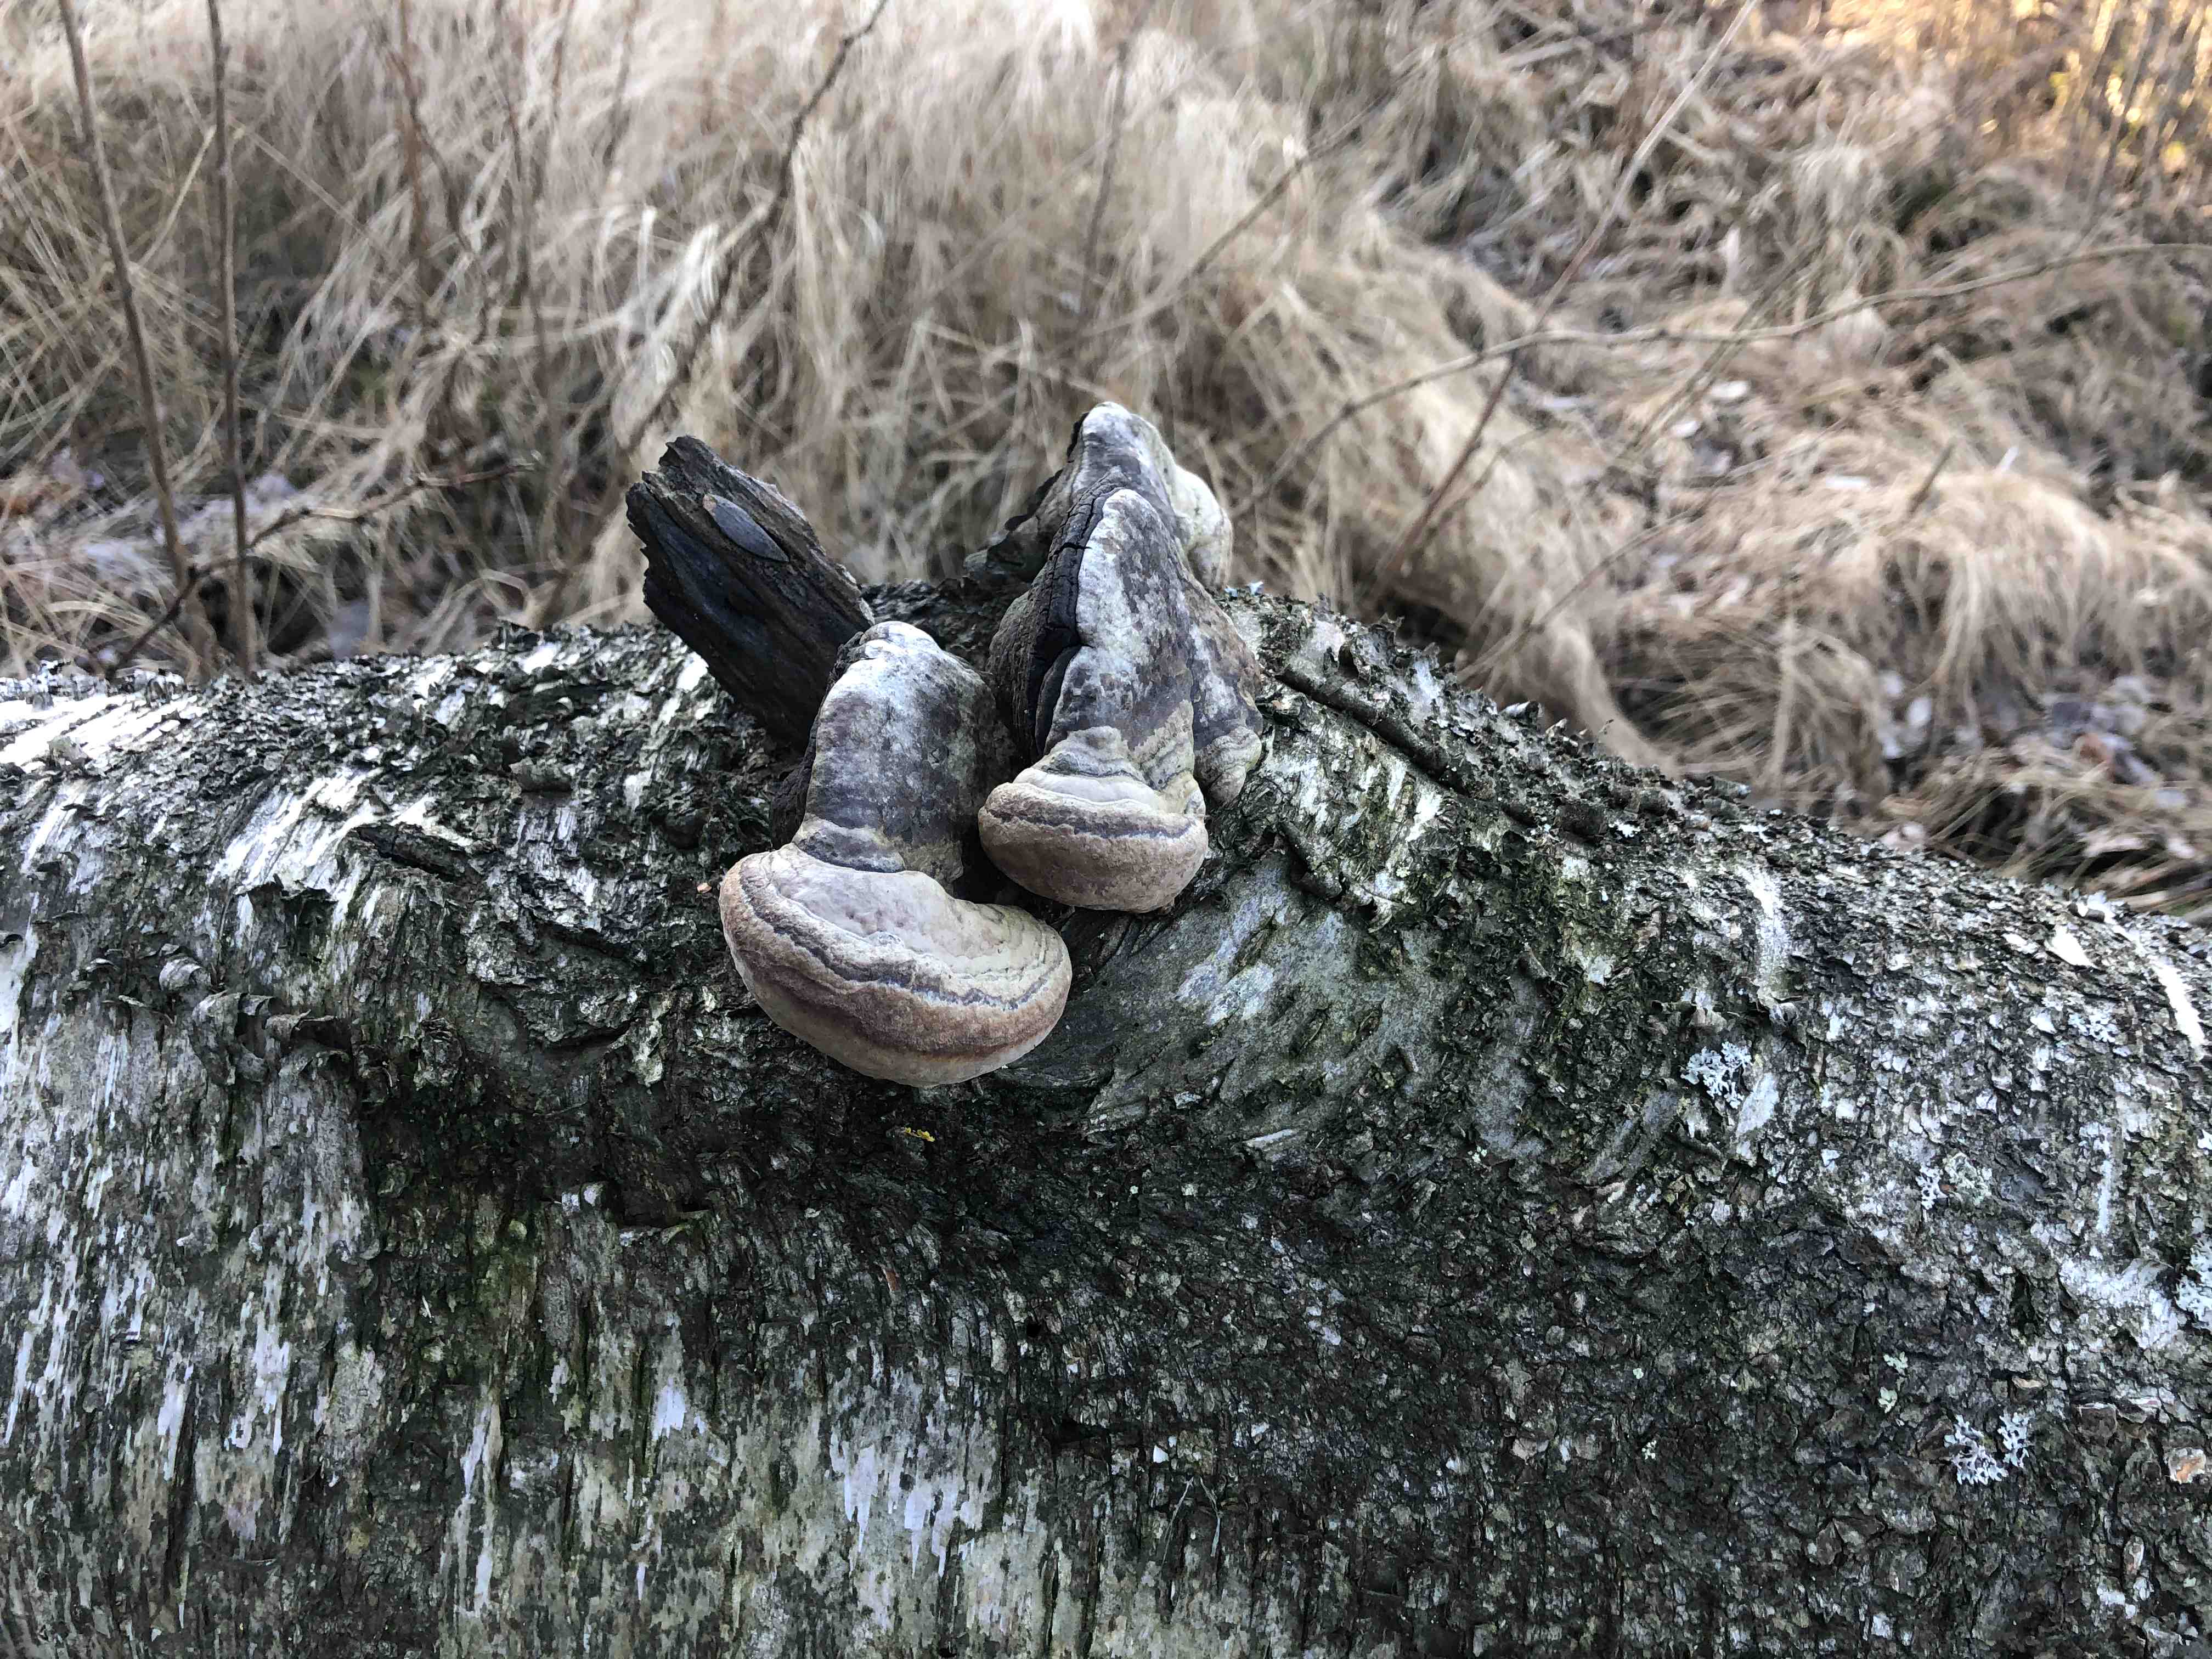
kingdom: Fungi
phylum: Basidiomycota
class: Agaricomycetes
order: Hymenochaetales
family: Hymenochaetaceae
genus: Phellinus
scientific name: Phellinus igniarius
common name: Willow bracket
